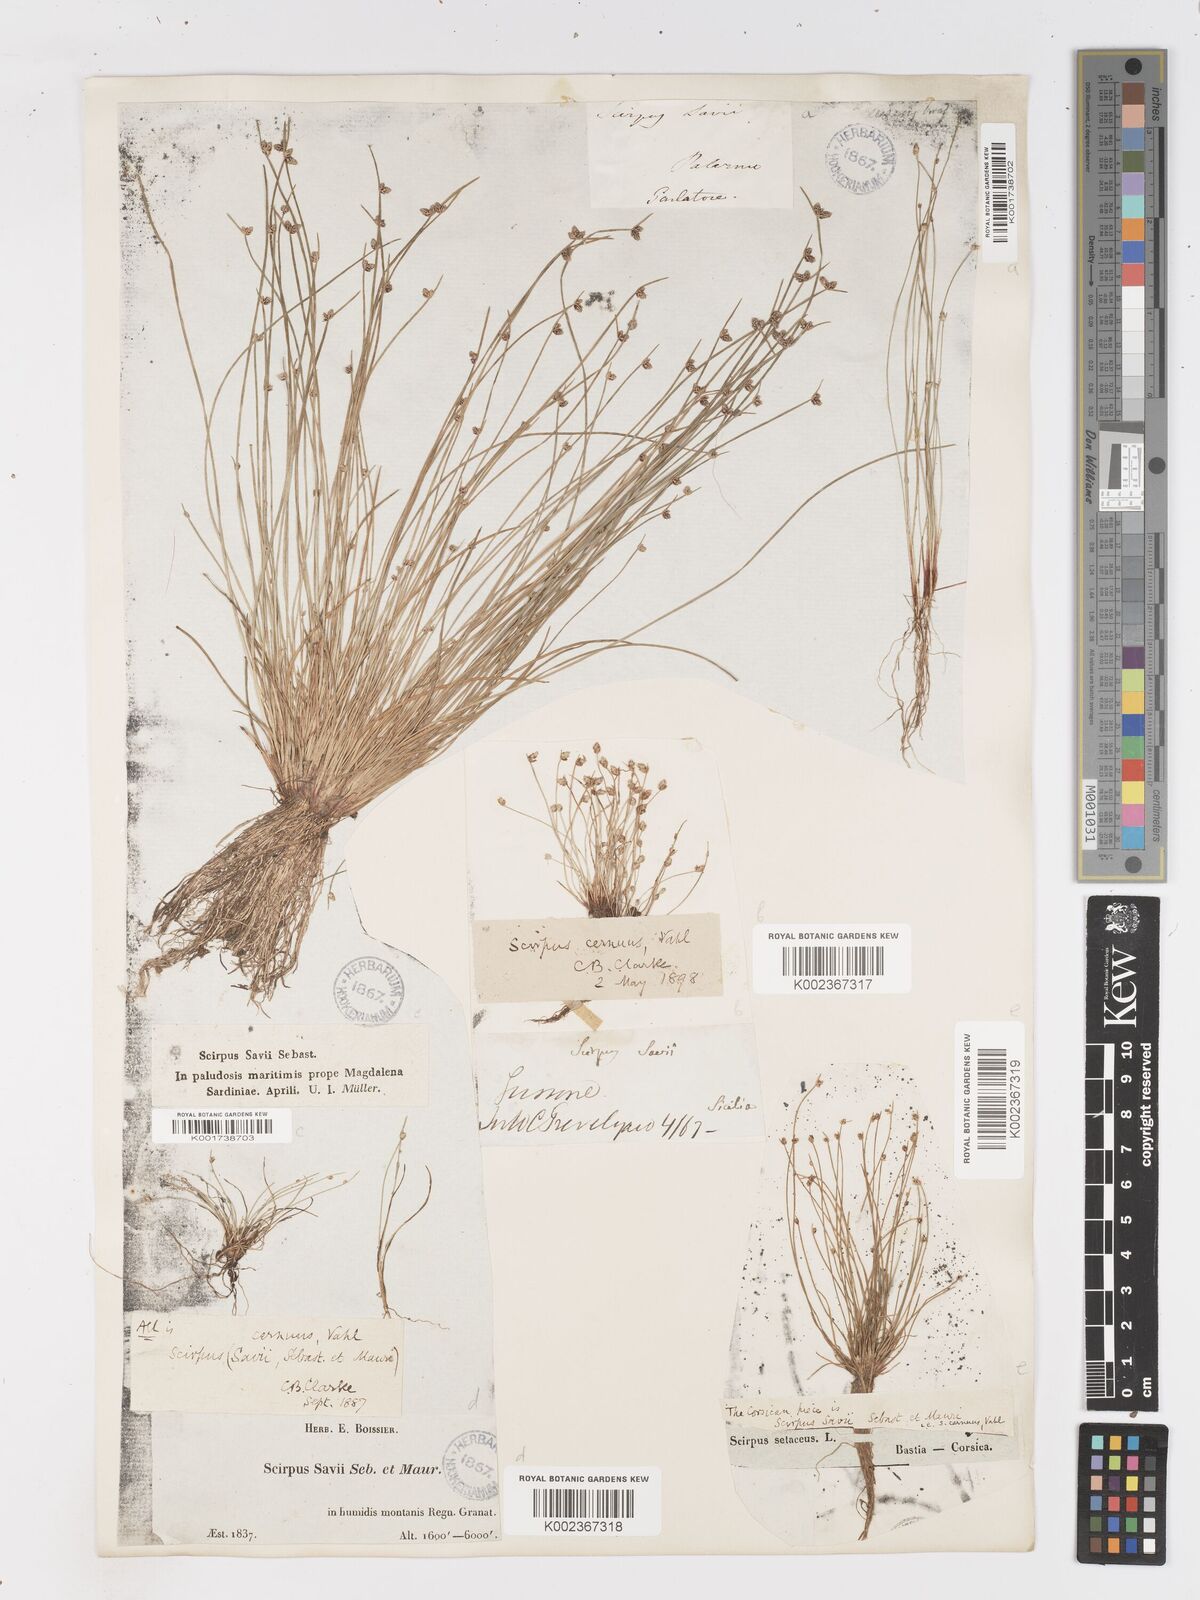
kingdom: Plantae
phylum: Tracheophyta
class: Liliopsida
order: Poales
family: Cyperaceae
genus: Isolepis
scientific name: Isolepis cernua
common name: Slender club-rush
